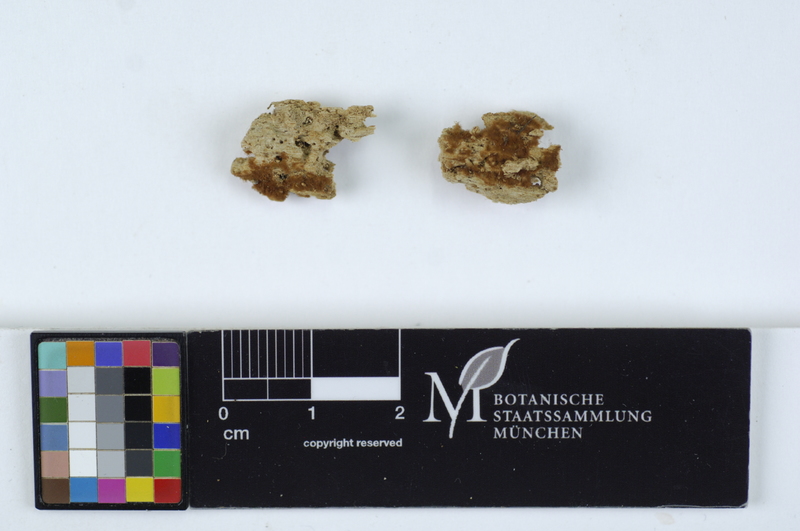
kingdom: Fungi
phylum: Basidiomycota
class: Agaricomycetes
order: Cantharellales
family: Botryobasidiaceae
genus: Botryobasidium
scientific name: Botryobasidium robustius
